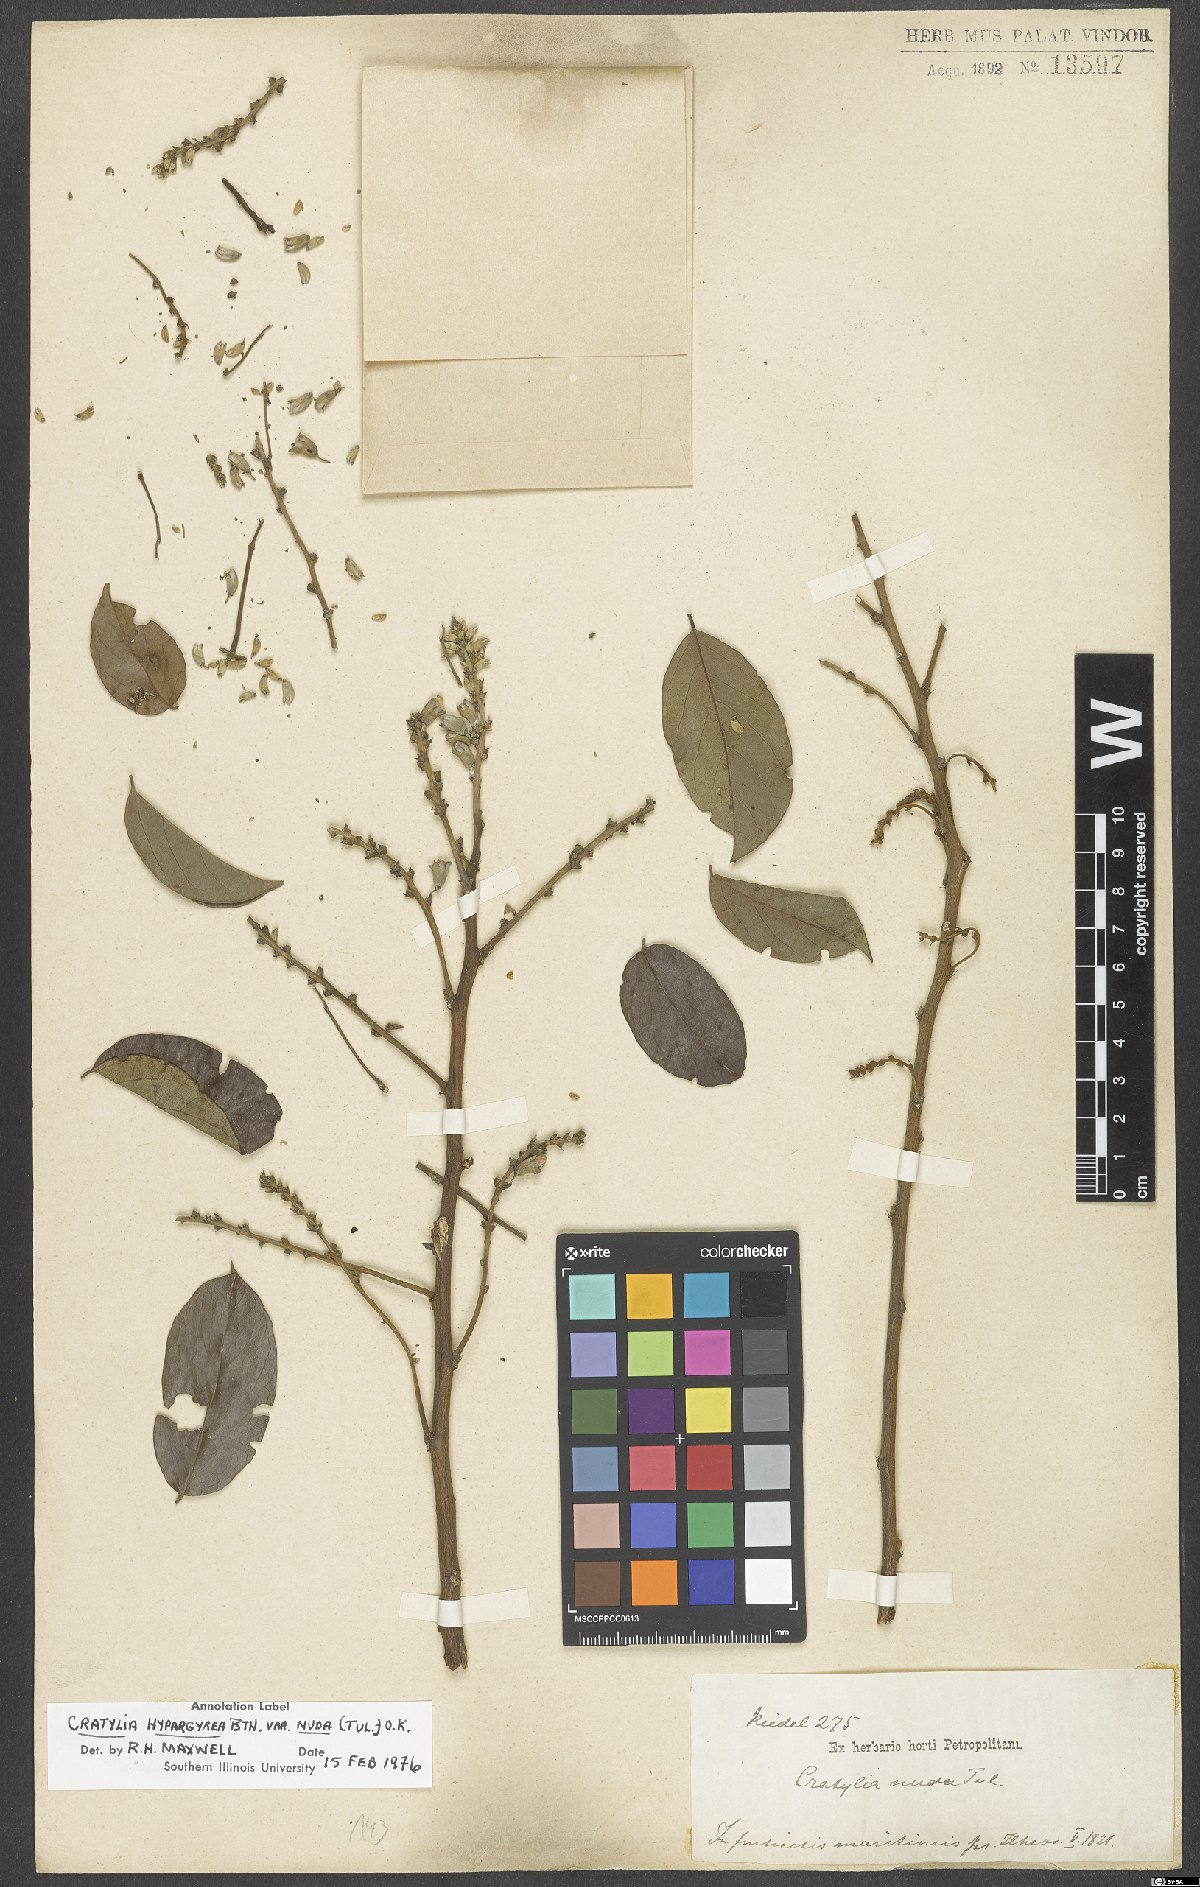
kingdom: Plantae
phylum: Tracheophyta
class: Magnoliopsida
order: Fabales
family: Fabaceae
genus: Cratylia
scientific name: Cratylia hypargyraea
